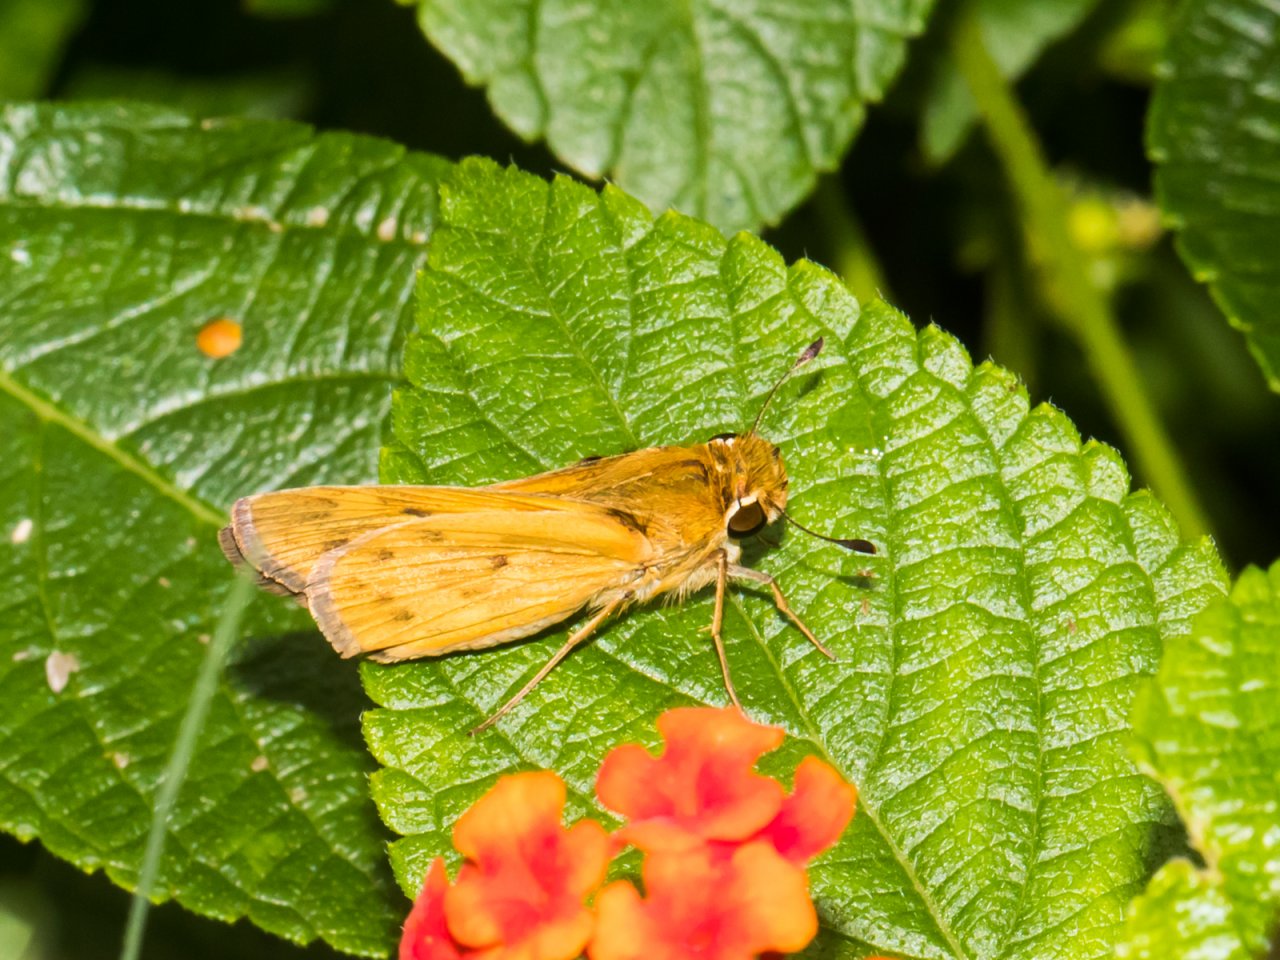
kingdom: Animalia
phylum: Arthropoda
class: Insecta
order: Lepidoptera
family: Hesperiidae
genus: Hylephila
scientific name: Hylephila phyleus
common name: Fiery Skipper
